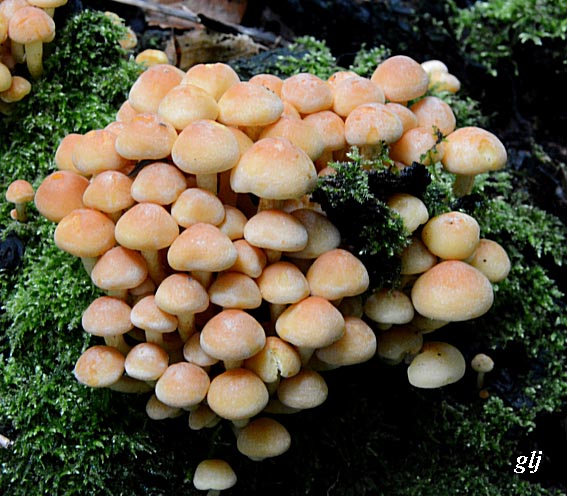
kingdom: Fungi
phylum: Basidiomycota
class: Agaricomycetes
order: Agaricales
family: Strophariaceae
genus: Hypholoma
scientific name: Hypholoma fasciculare
